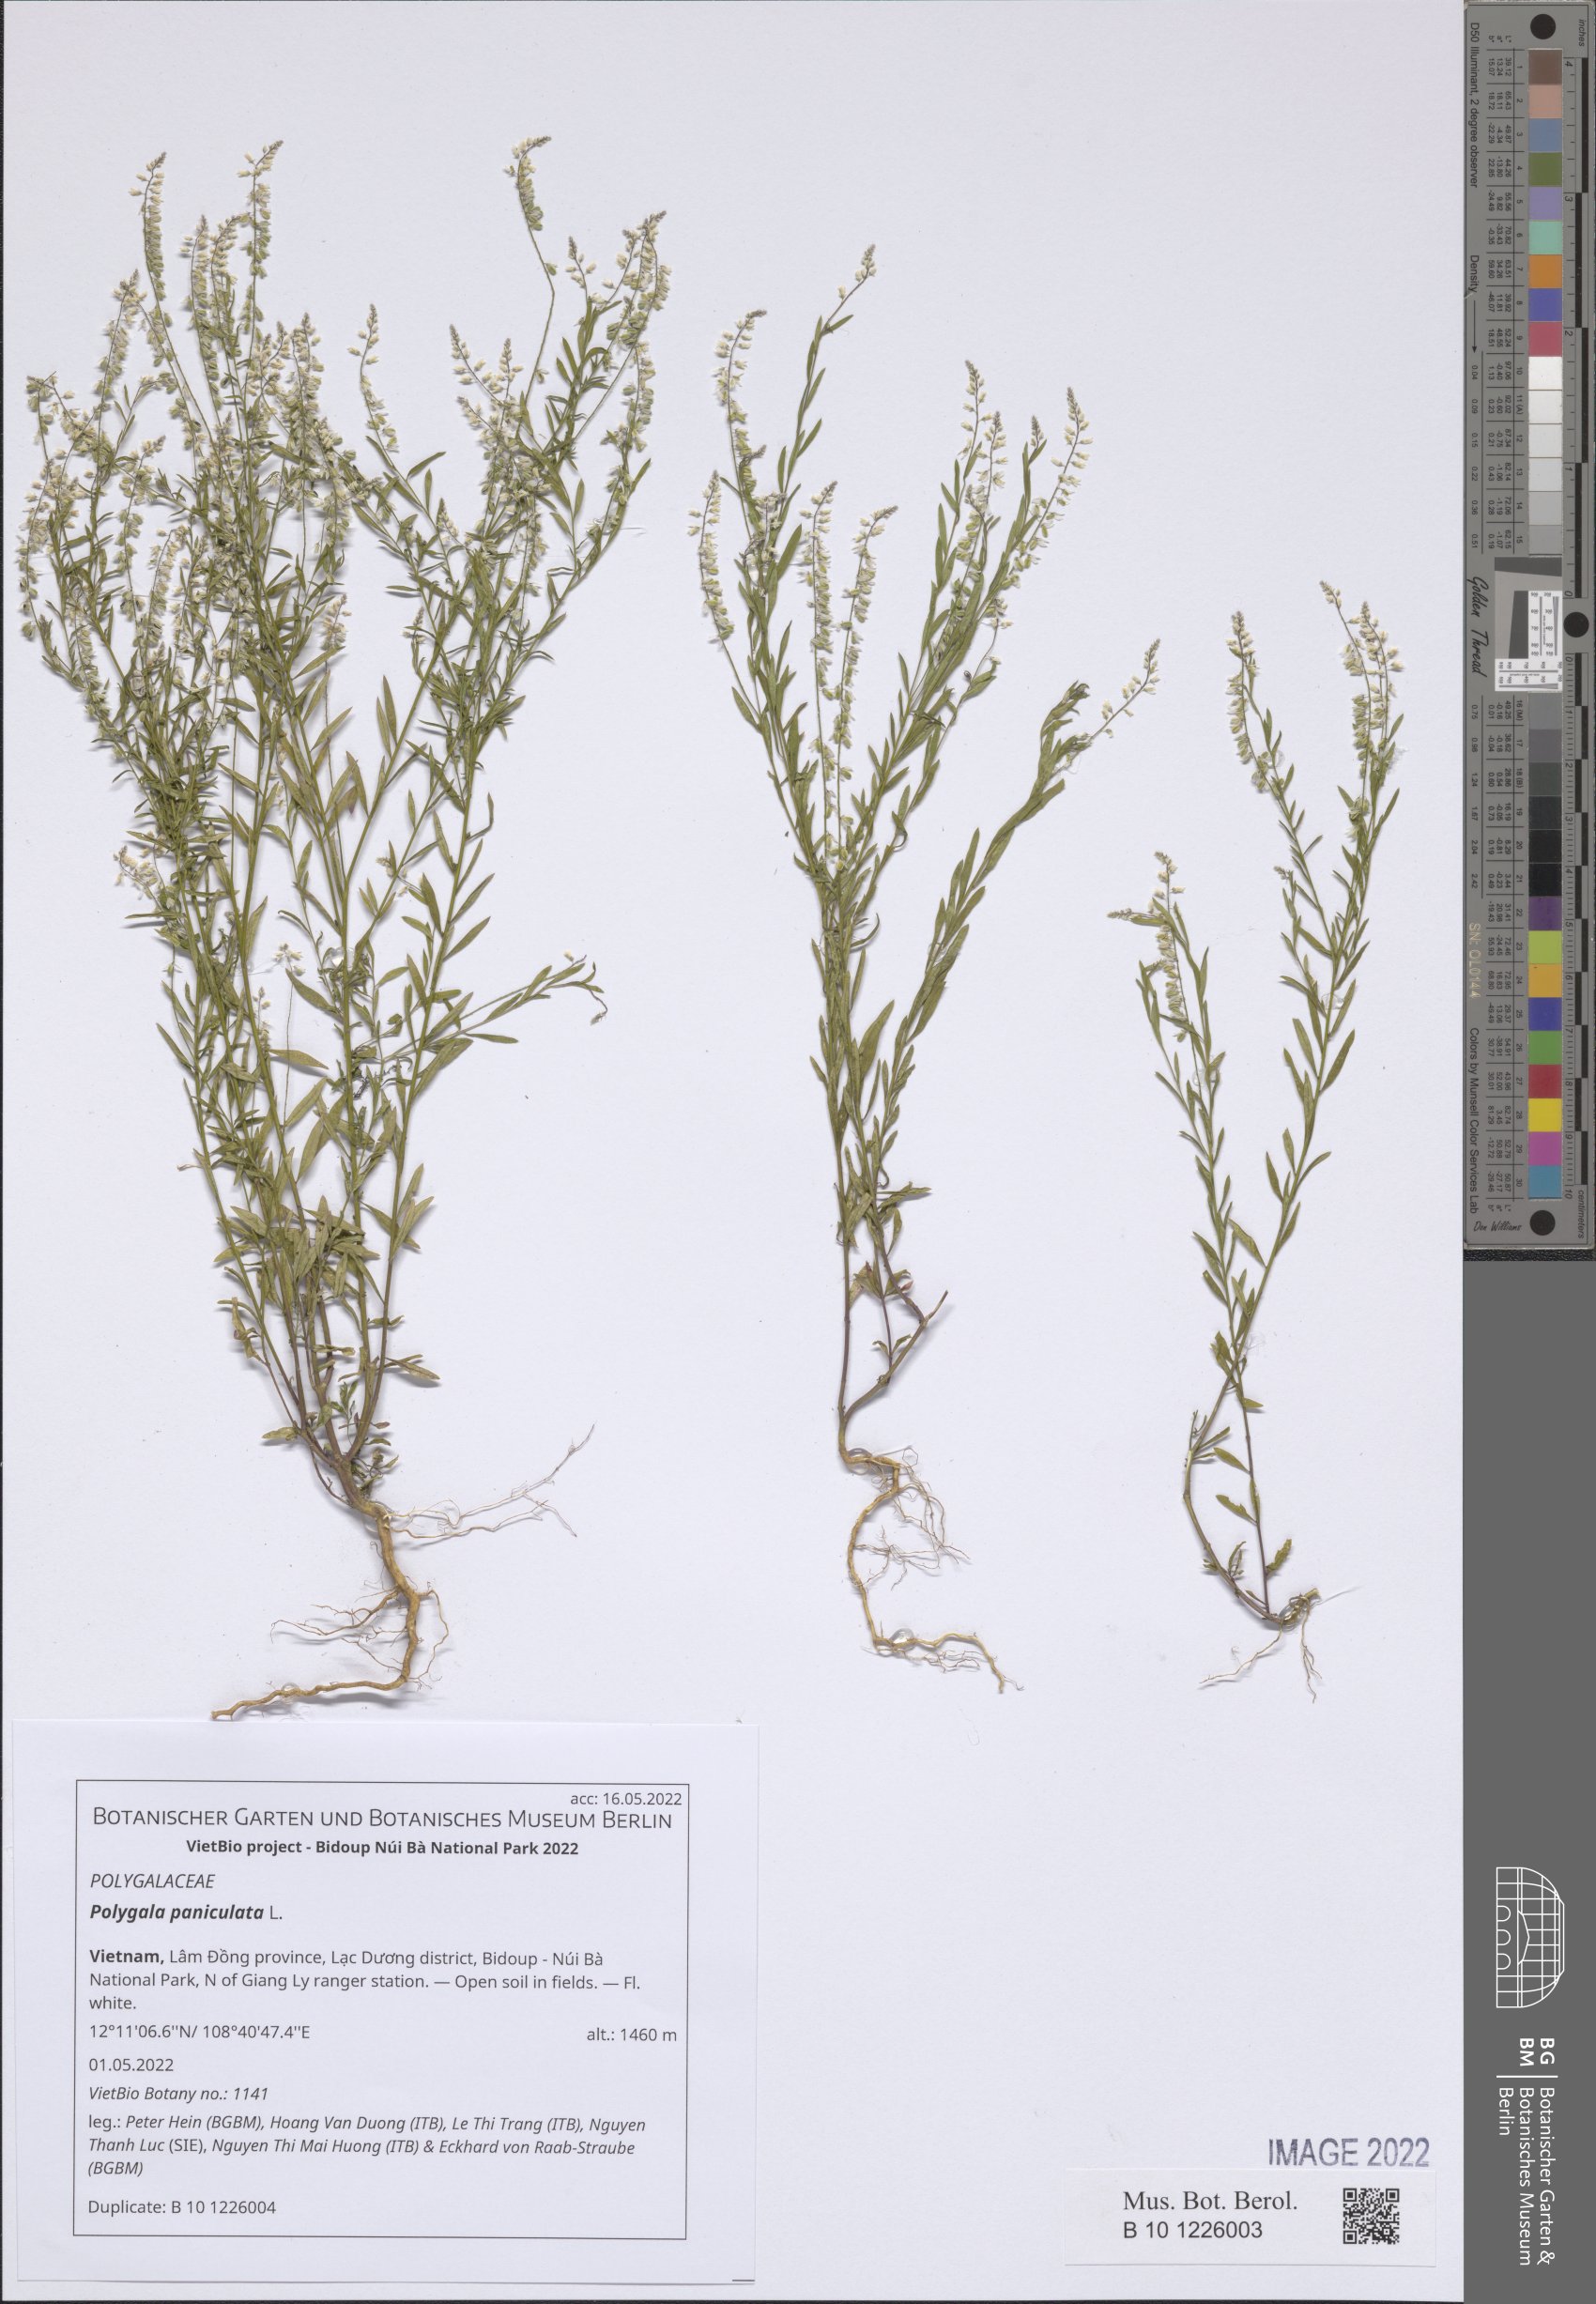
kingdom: Plantae
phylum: Tracheophyta
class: Magnoliopsida
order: Fabales
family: Polygalaceae
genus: Polygala
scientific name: Polygala paniculata
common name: Orosne
